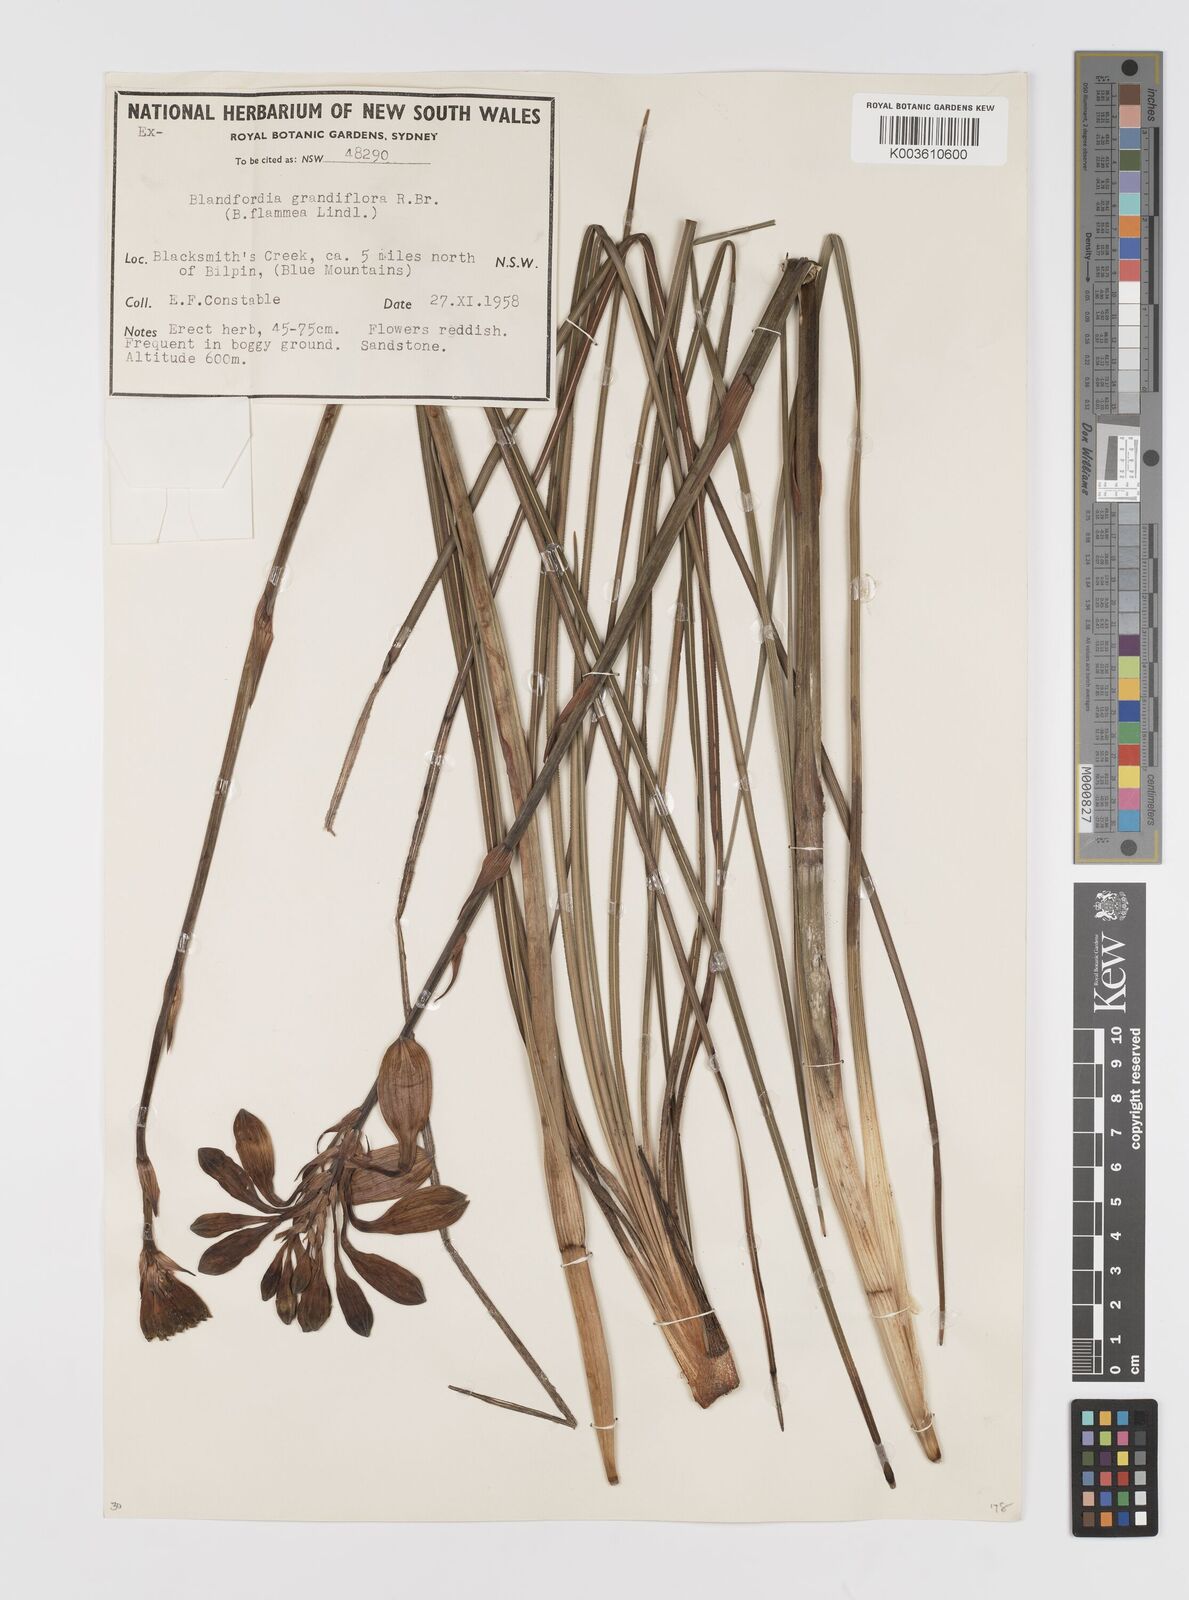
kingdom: Plantae
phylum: Tracheophyta
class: Liliopsida
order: Asparagales
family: Blandfordiaceae
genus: Blandfordia
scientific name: Blandfordia grandiflora
